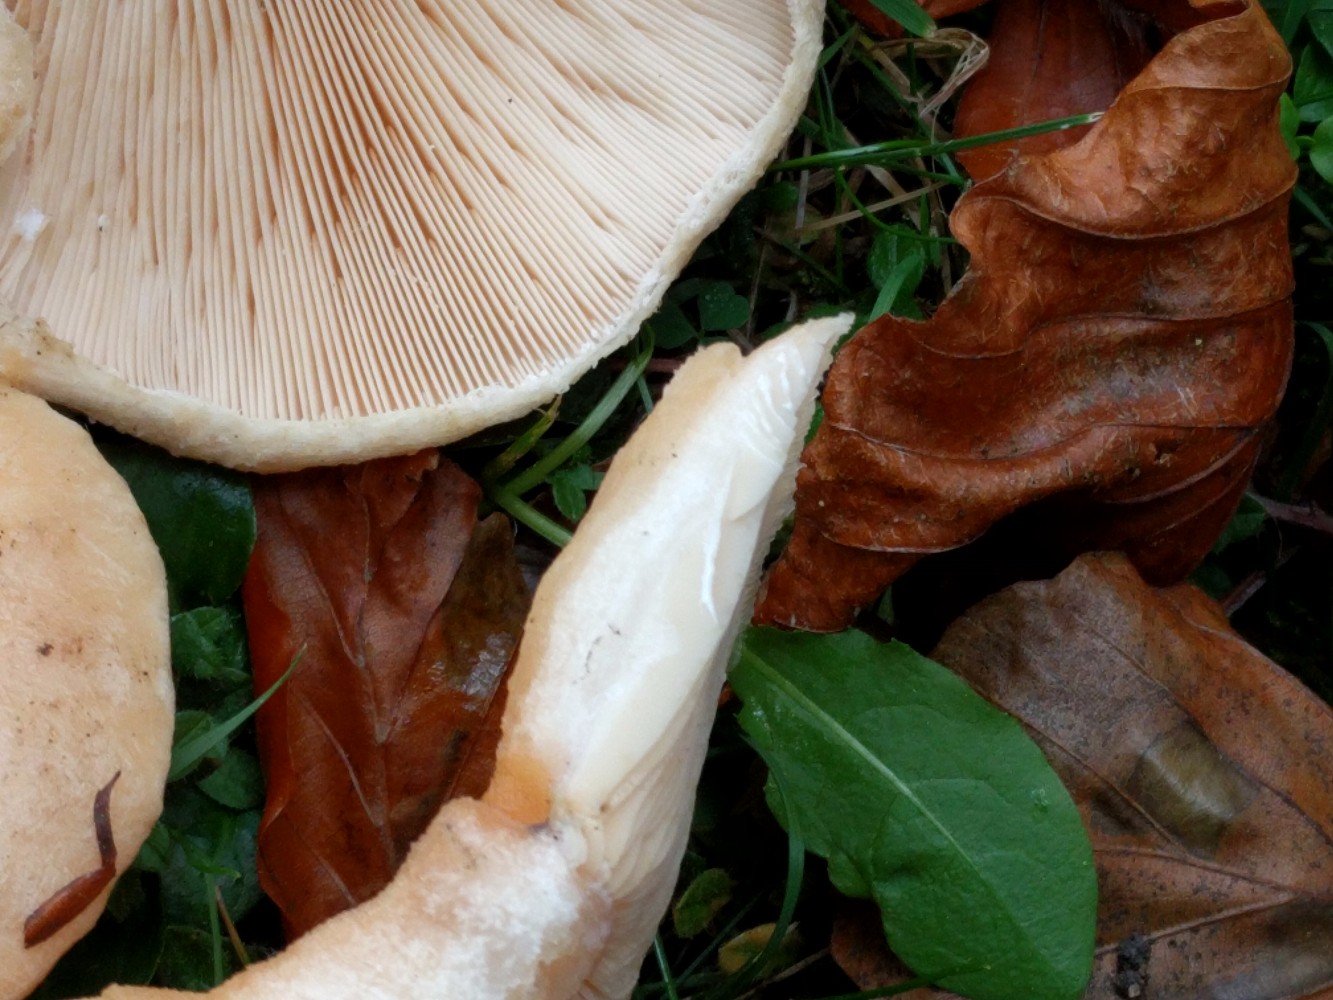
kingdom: Fungi
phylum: Basidiomycota
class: Agaricomycetes
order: Russulales
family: Russulaceae
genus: Lactarius
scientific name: Lactarius pubescens
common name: dunet mælkehat
